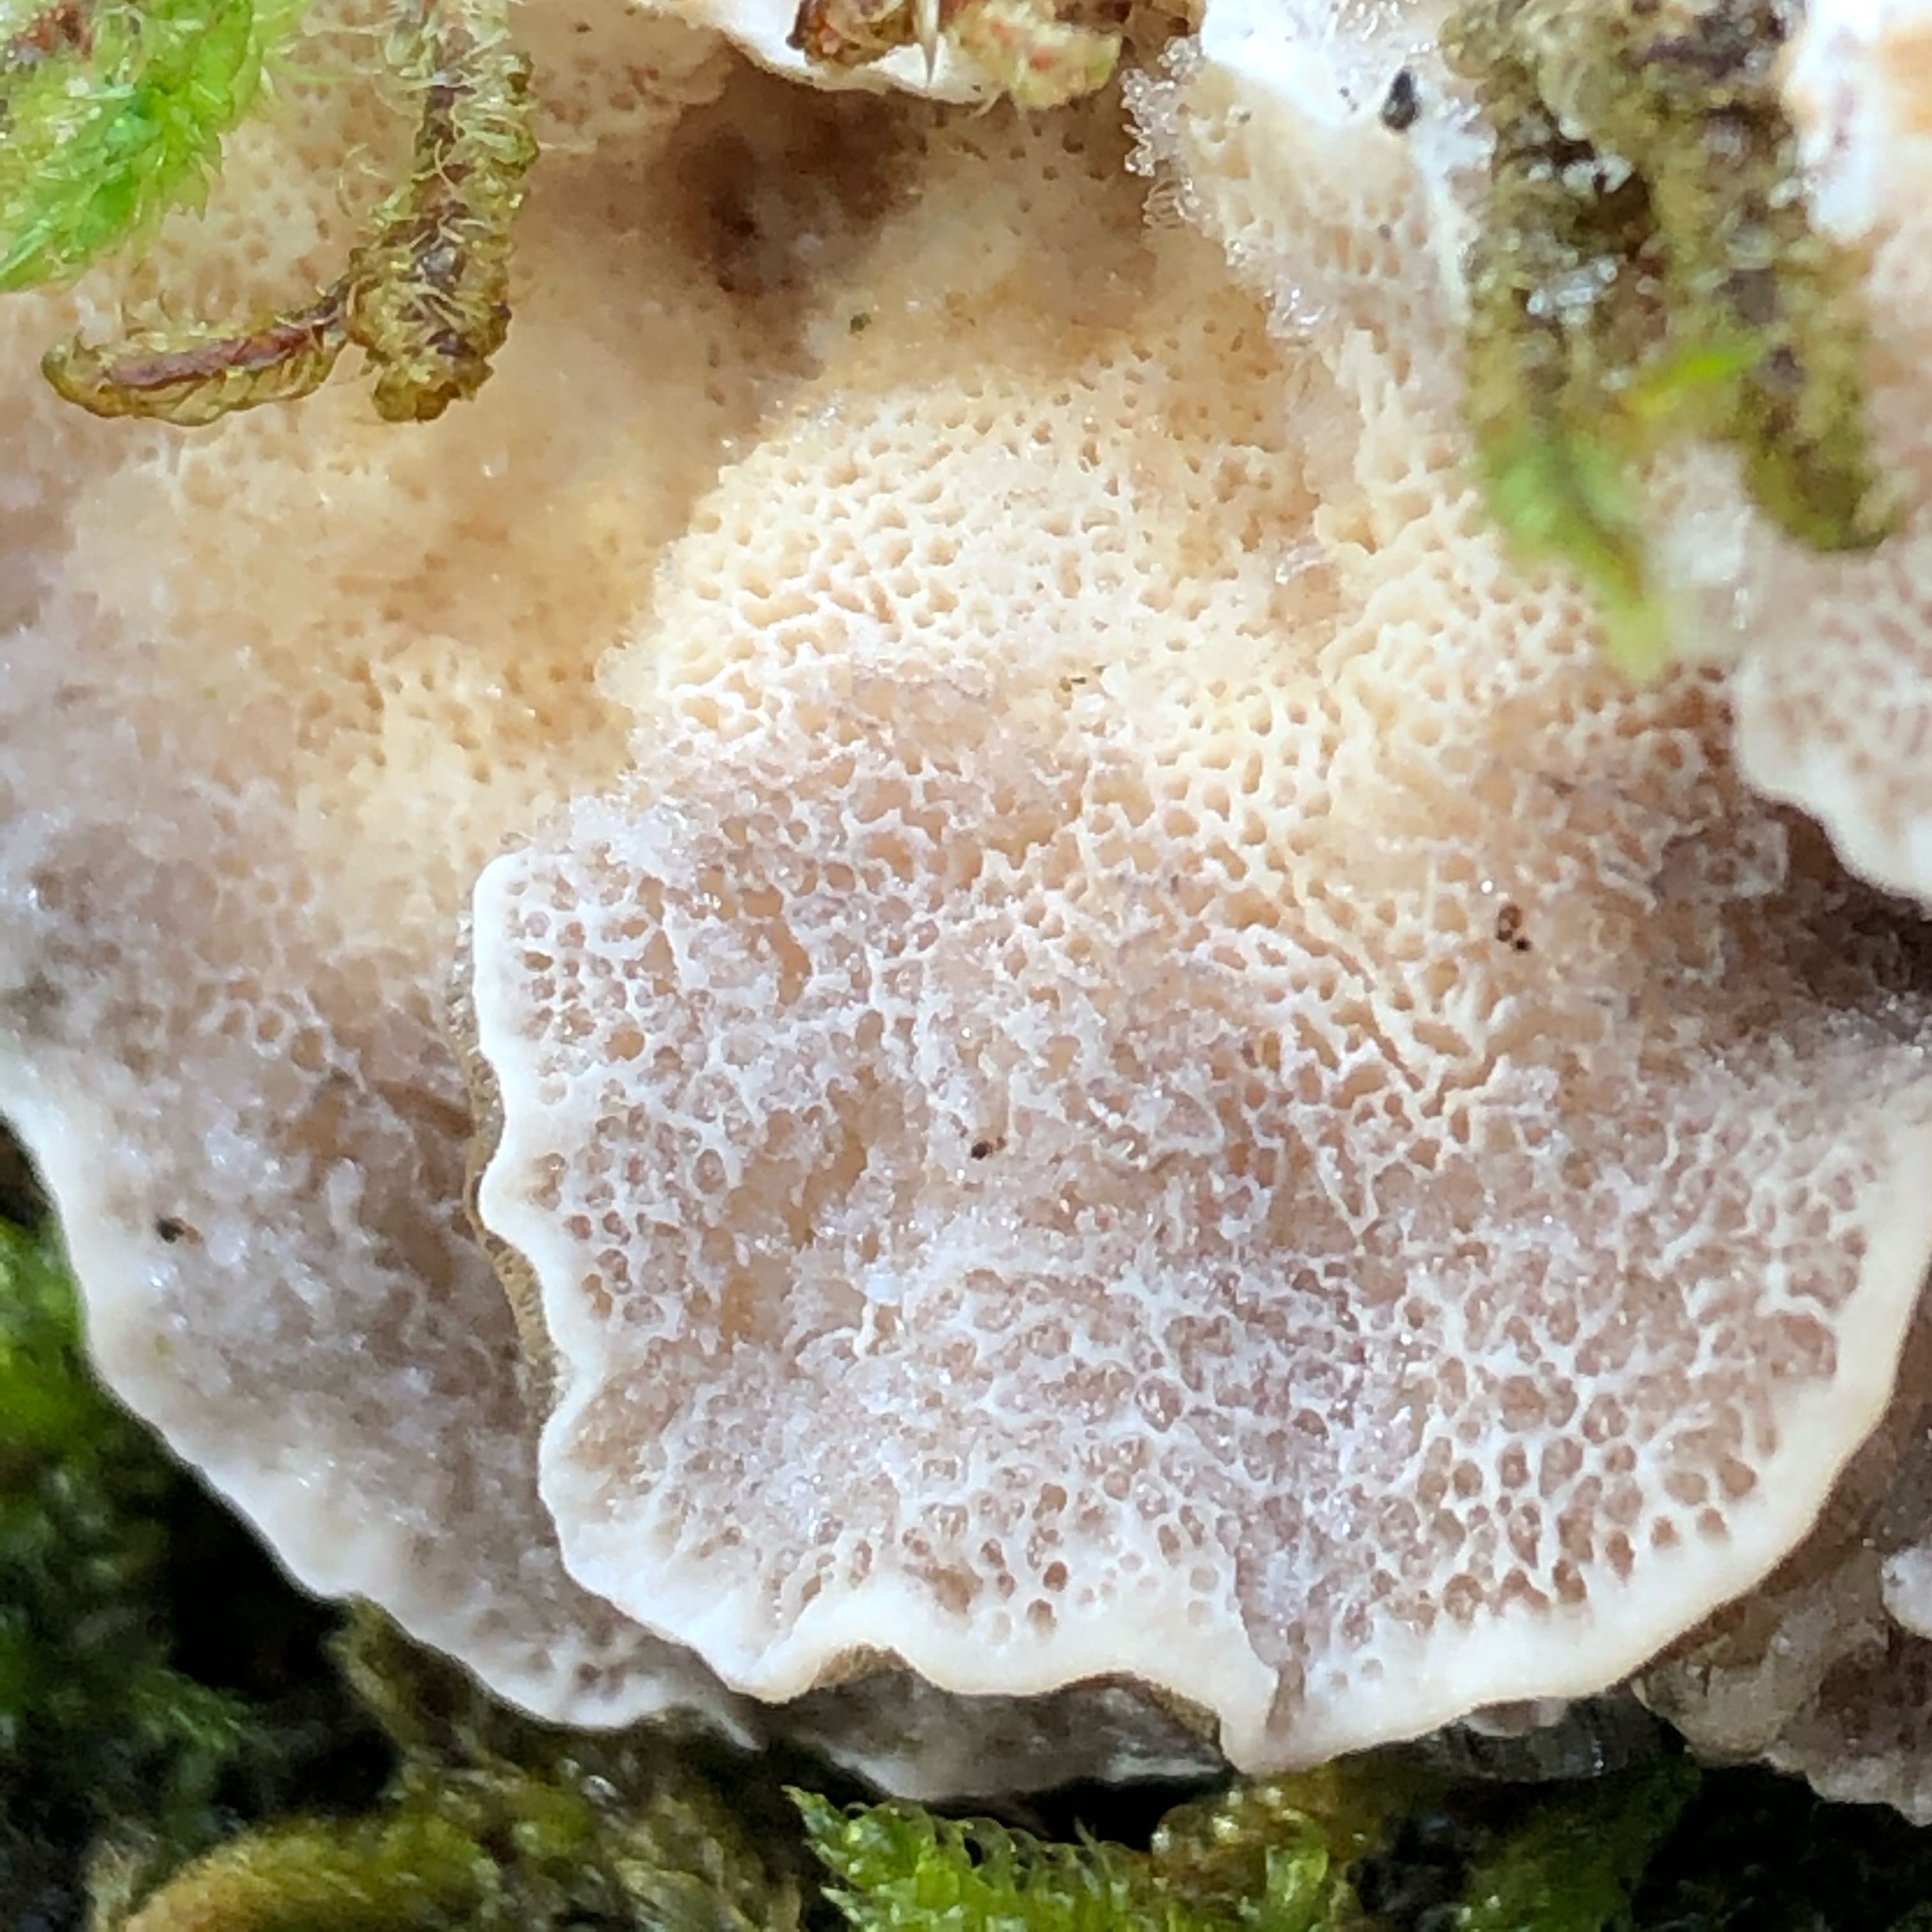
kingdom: Fungi
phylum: Basidiomycota
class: Agaricomycetes
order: Polyporales
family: Polyporaceae
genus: Trametes
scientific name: Trametes ochracea
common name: bæltet læderporesvamp
